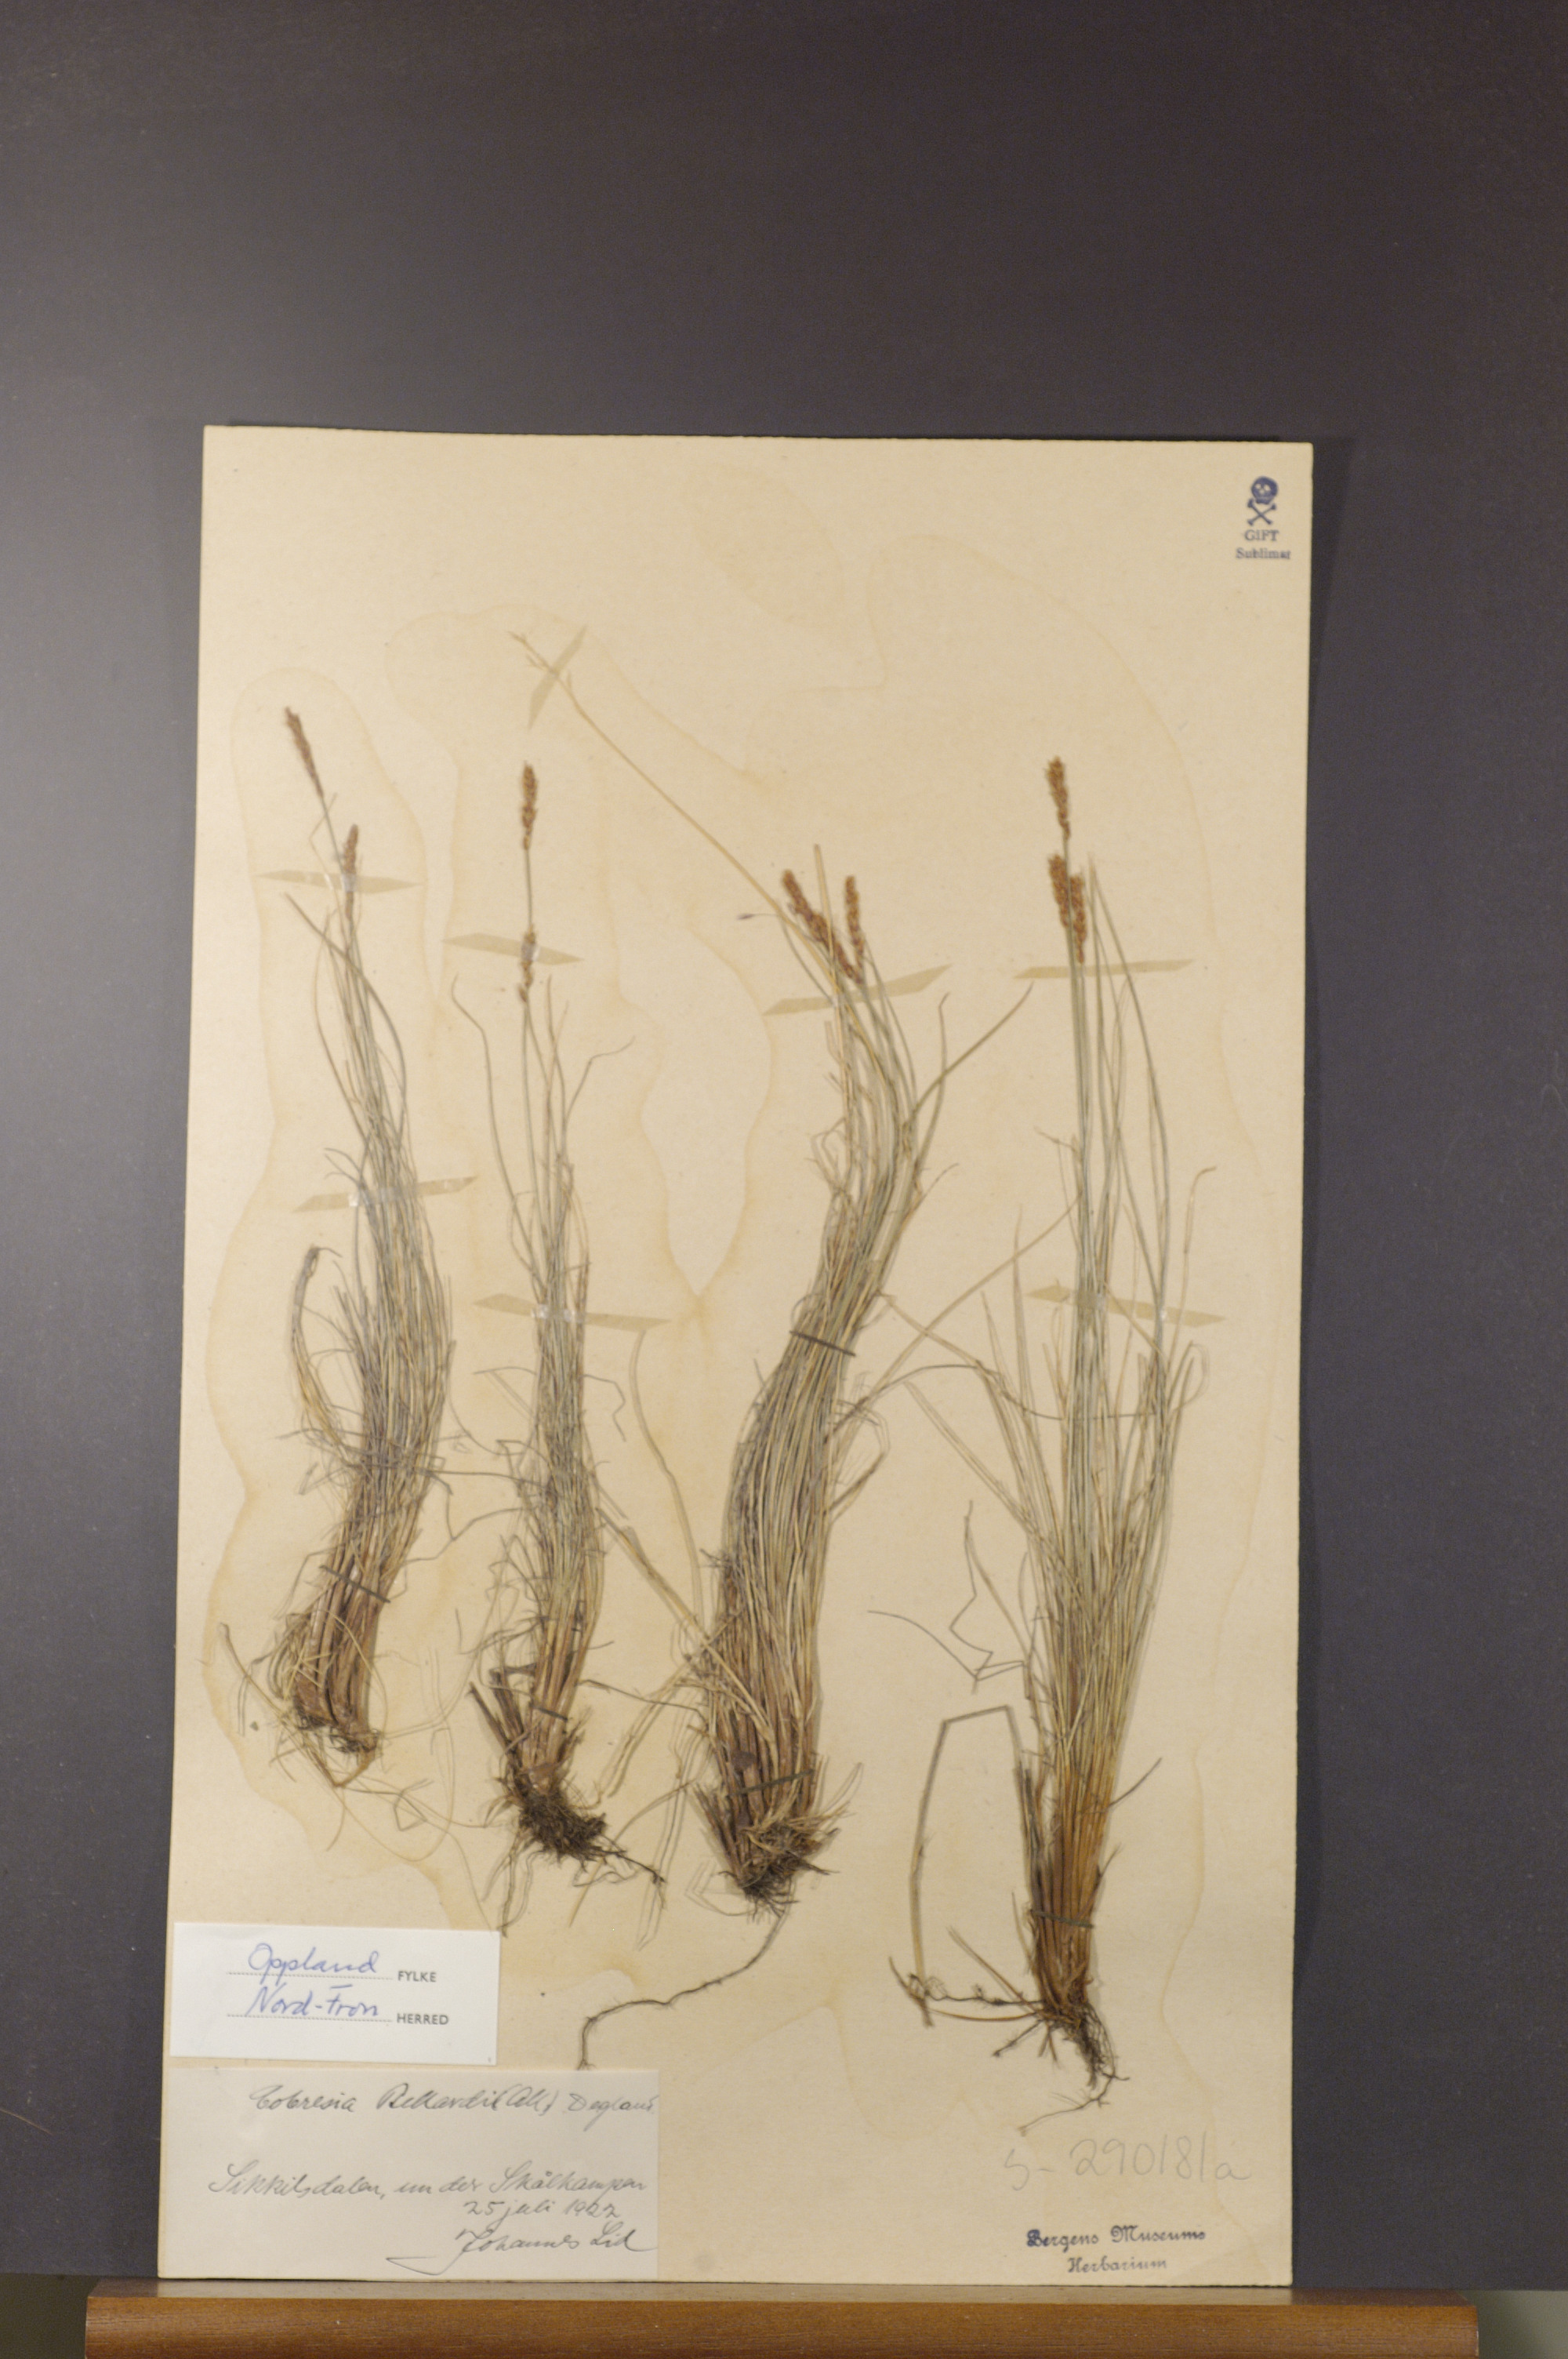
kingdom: Plantae
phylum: Tracheophyta
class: Liliopsida
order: Poales
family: Cyperaceae
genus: Carex
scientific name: Carex myosuroides
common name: Bellard's bog sedge
